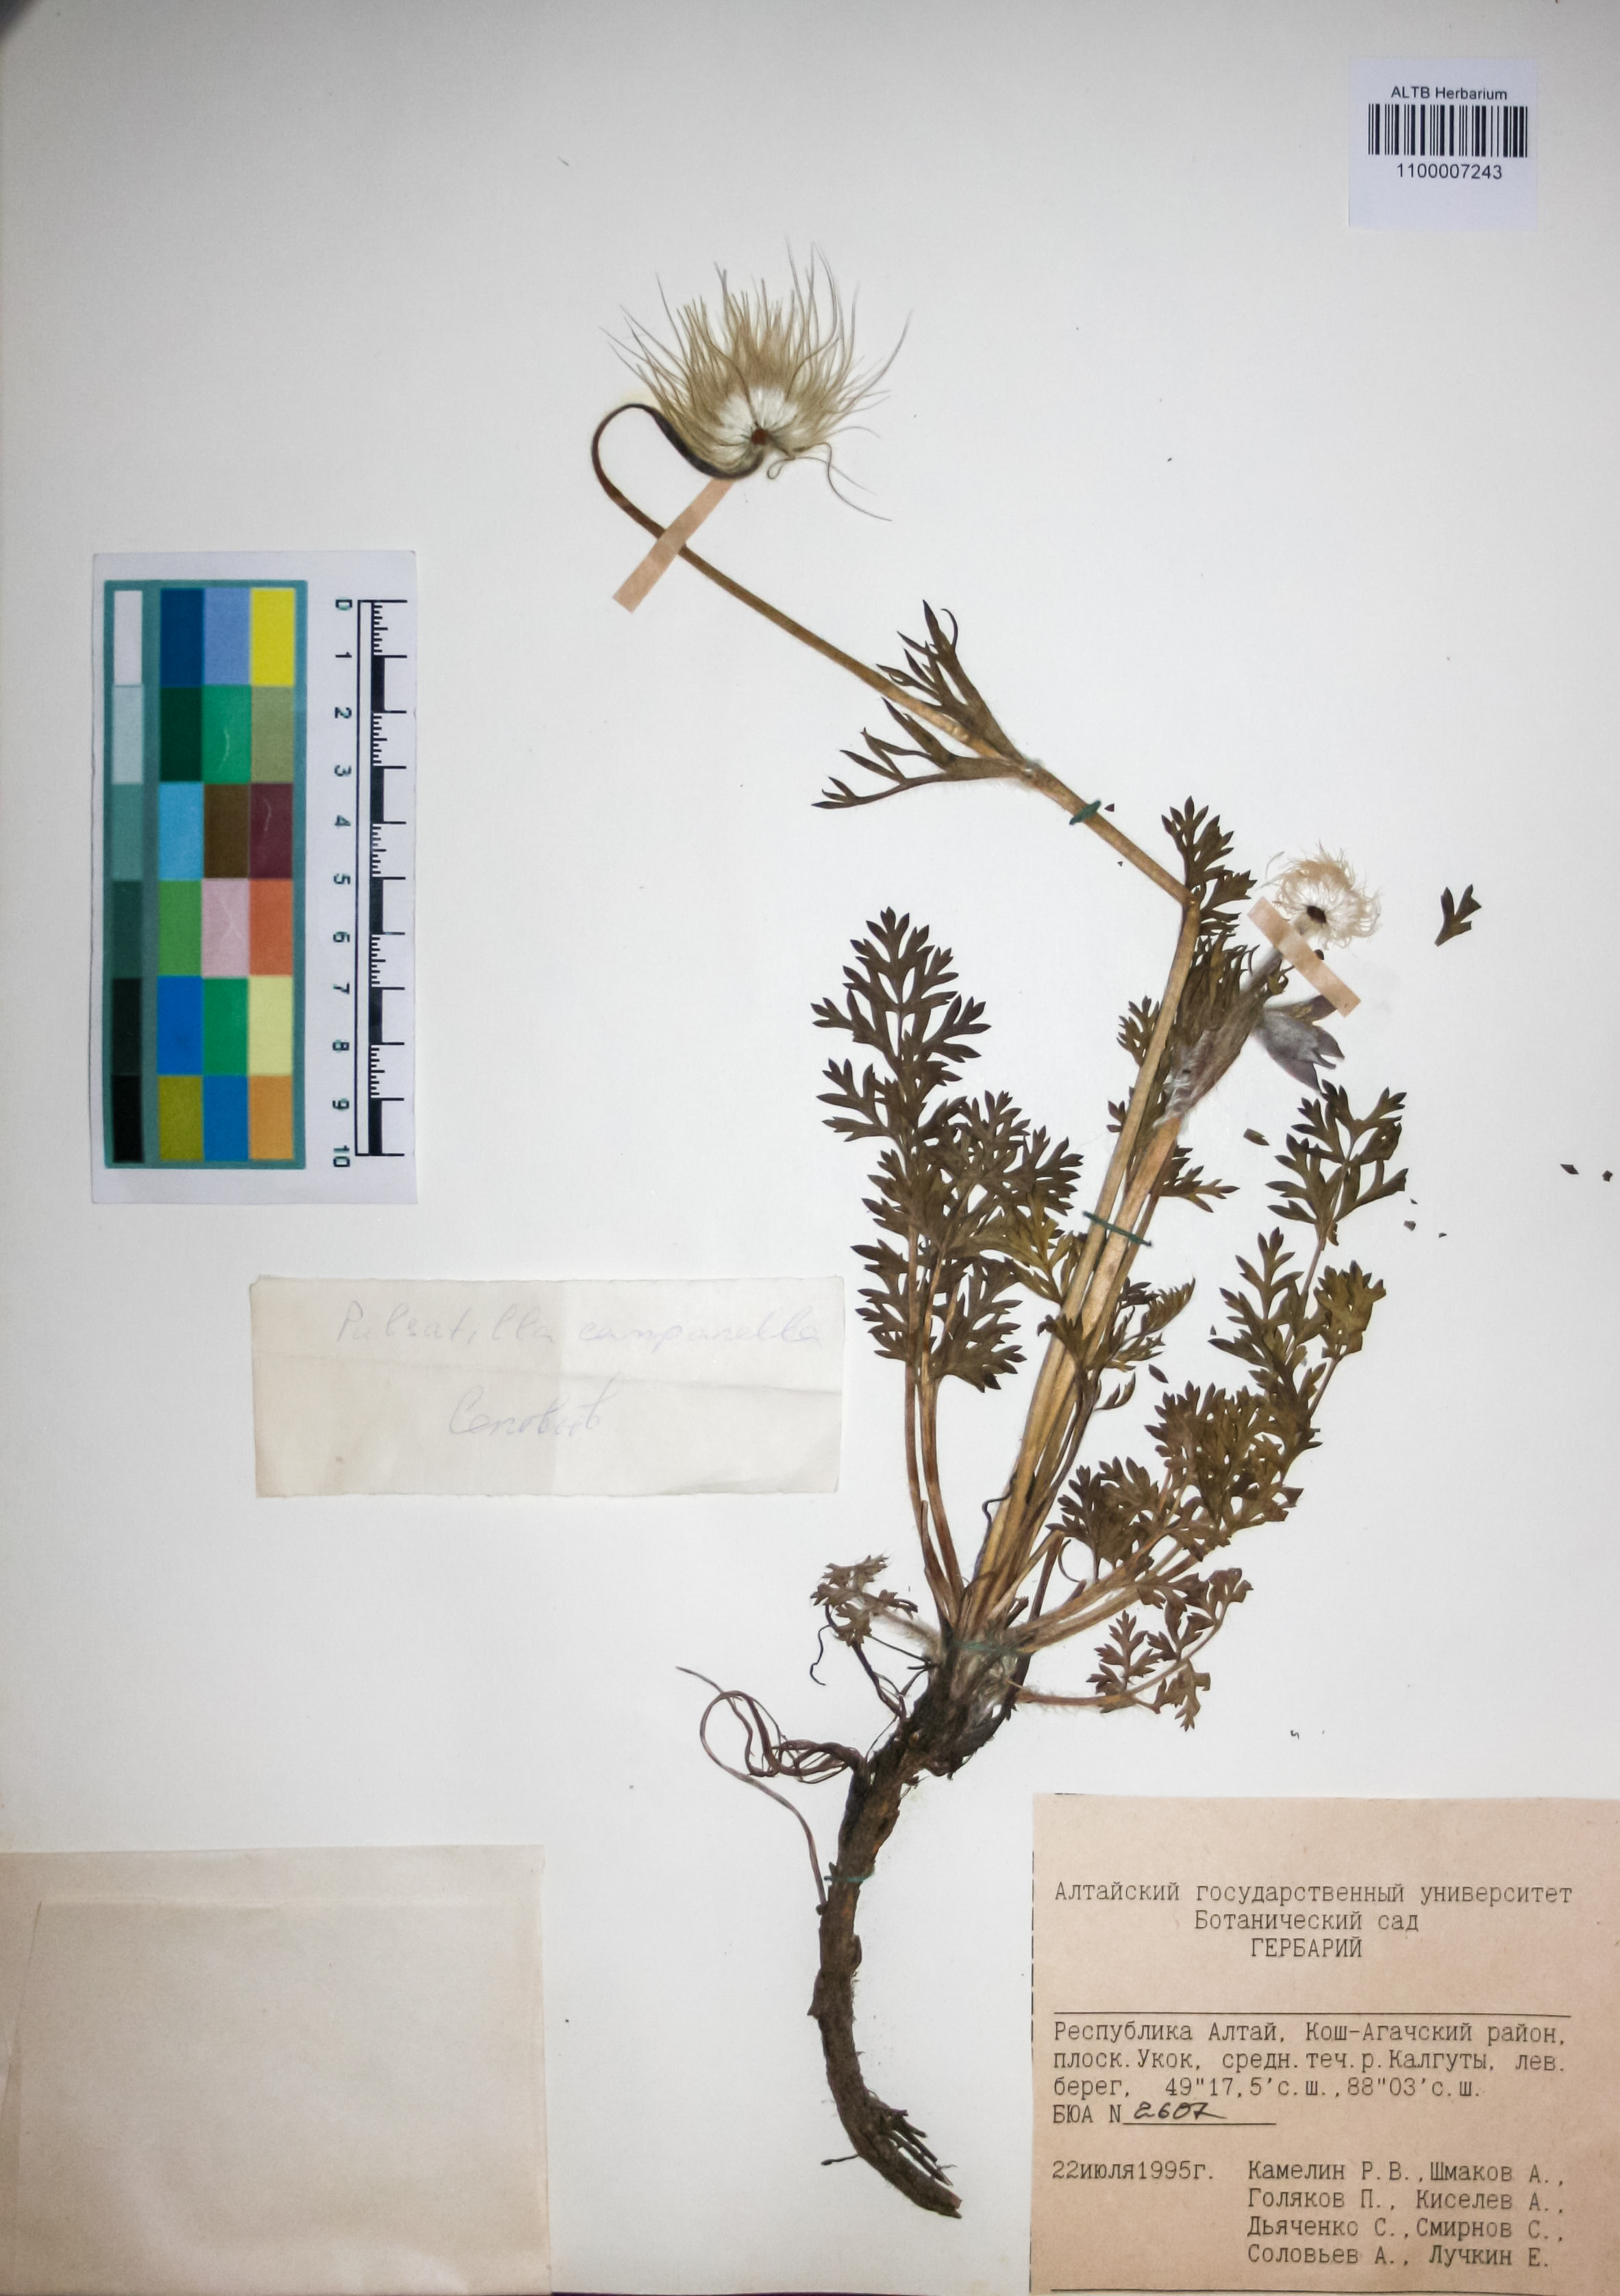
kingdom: Plantae
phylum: Tracheophyta
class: Magnoliopsida
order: Ranunculales
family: Ranunculaceae
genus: Pulsatilla
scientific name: Pulsatilla campanella
